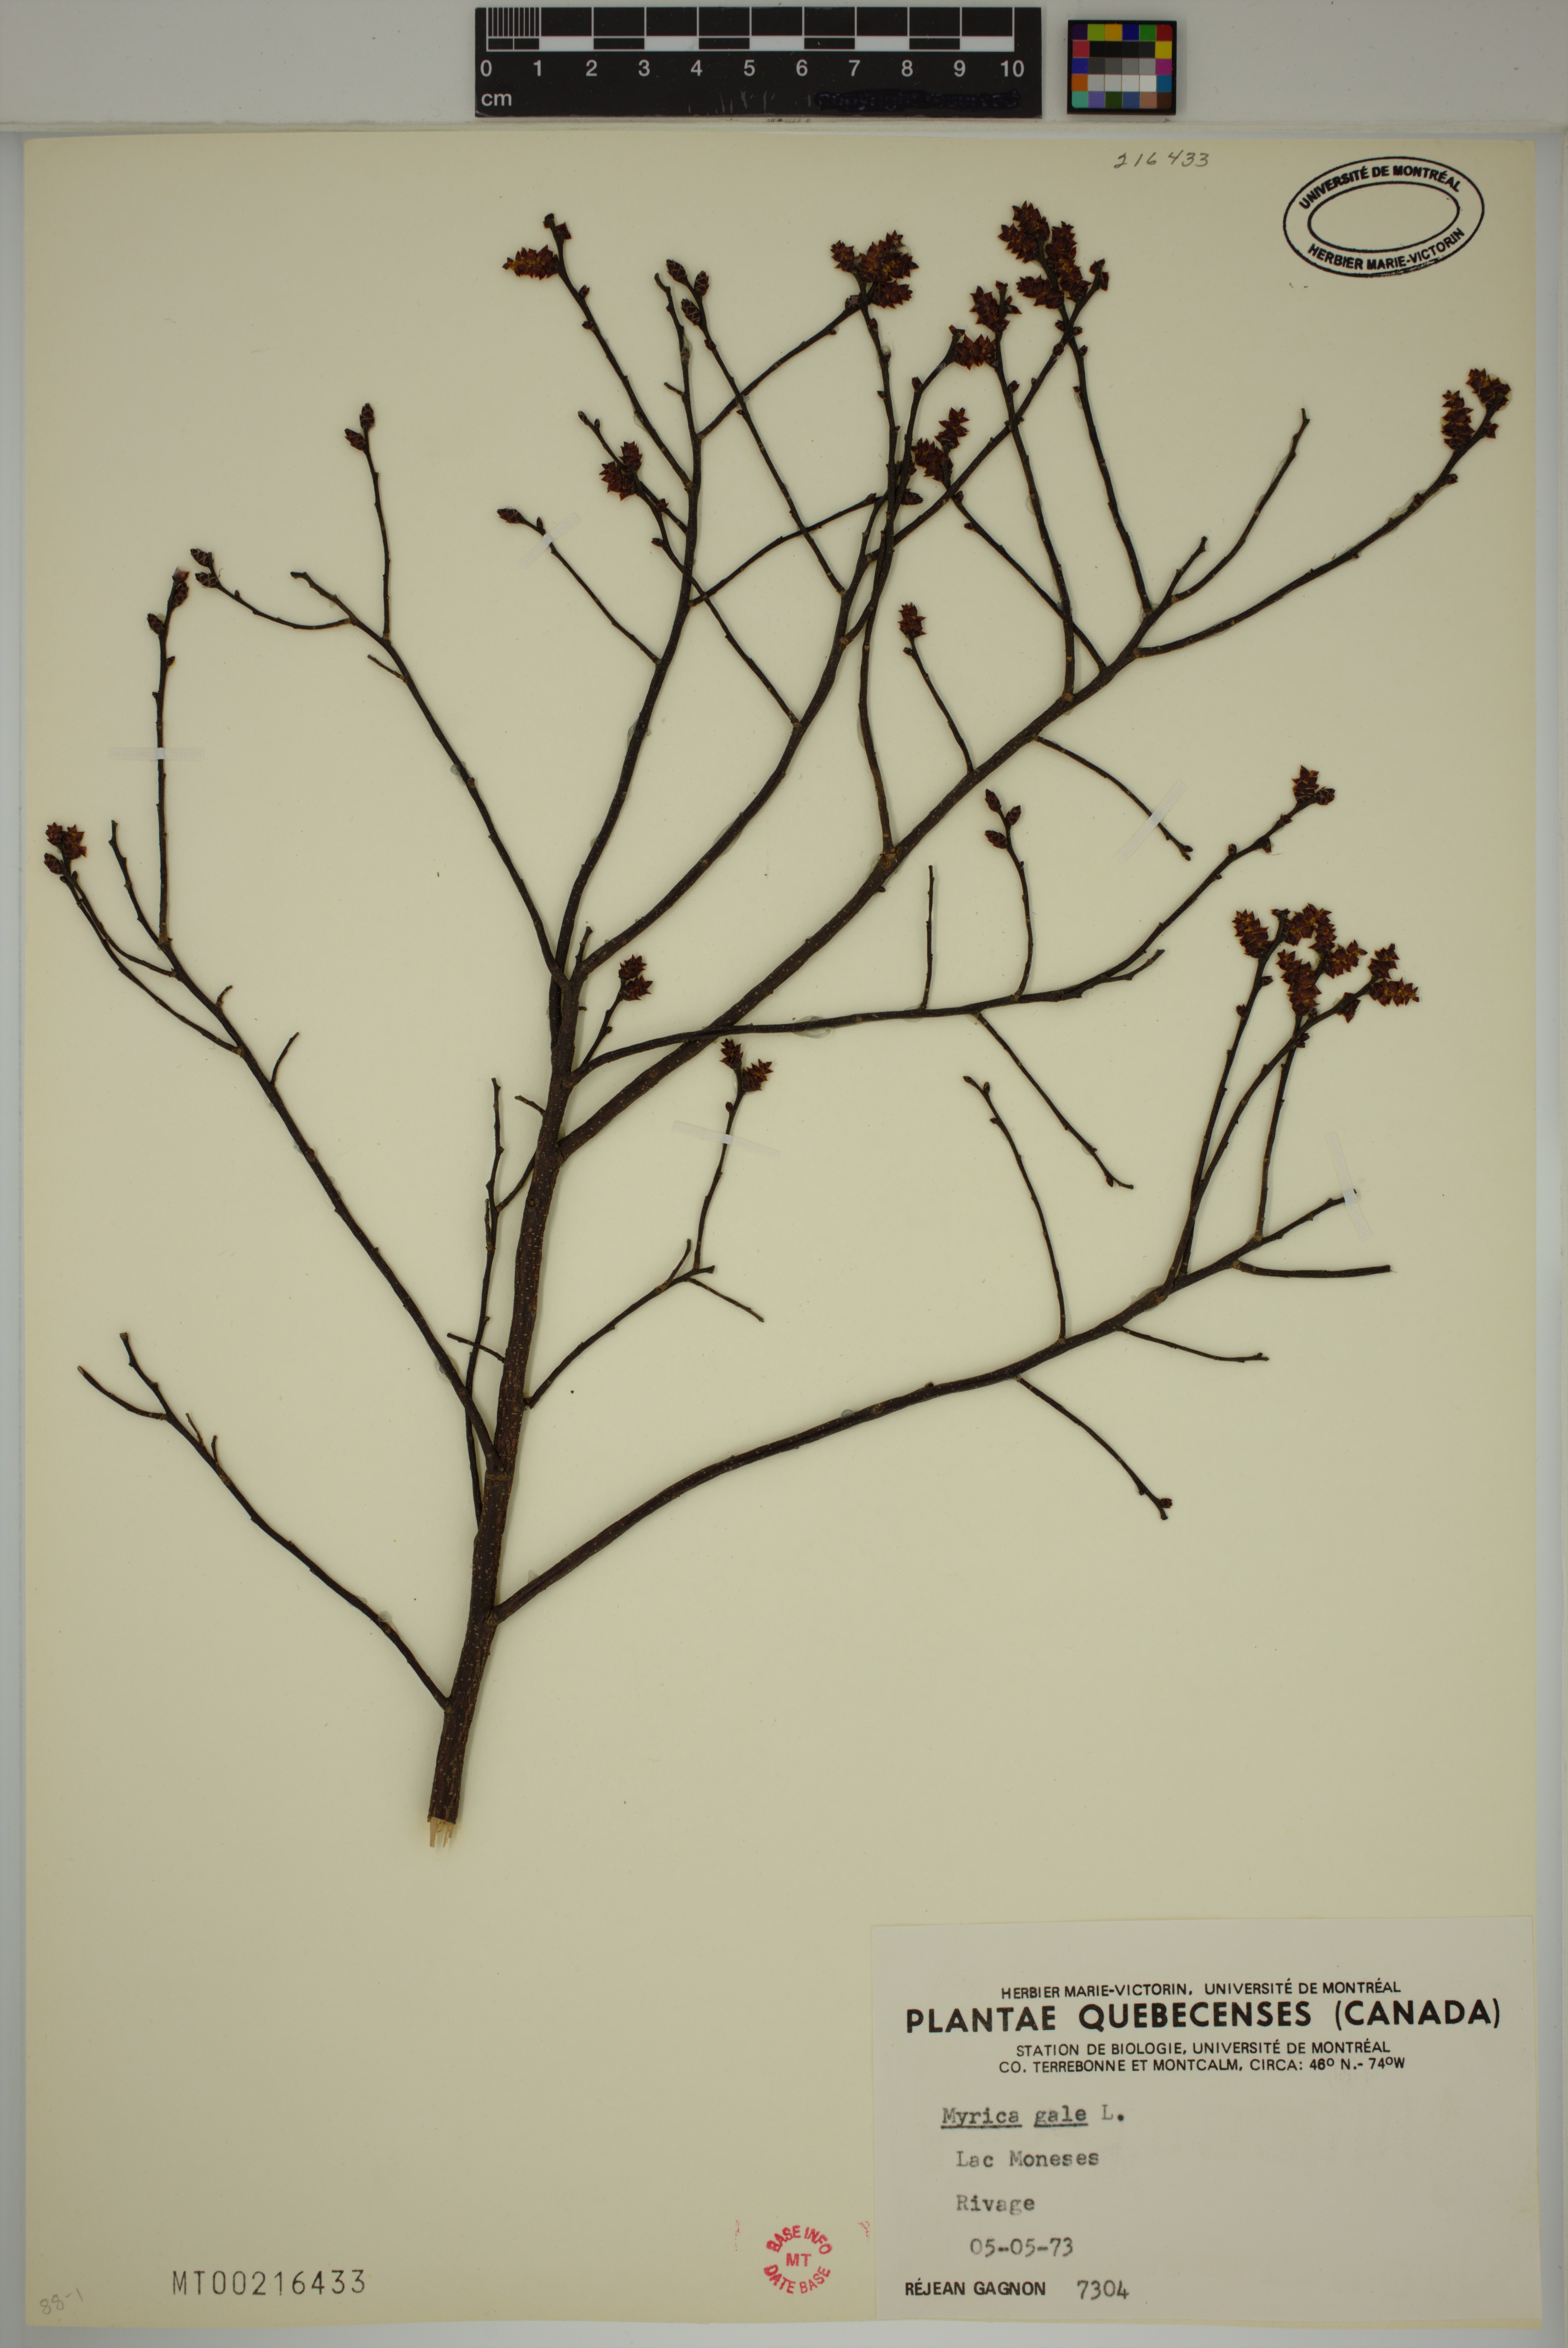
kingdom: Plantae
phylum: Tracheophyta
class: Magnoliopsida
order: Fagales
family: Myricaceae
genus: Myrica
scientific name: Myrica gale
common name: Sweet gale
